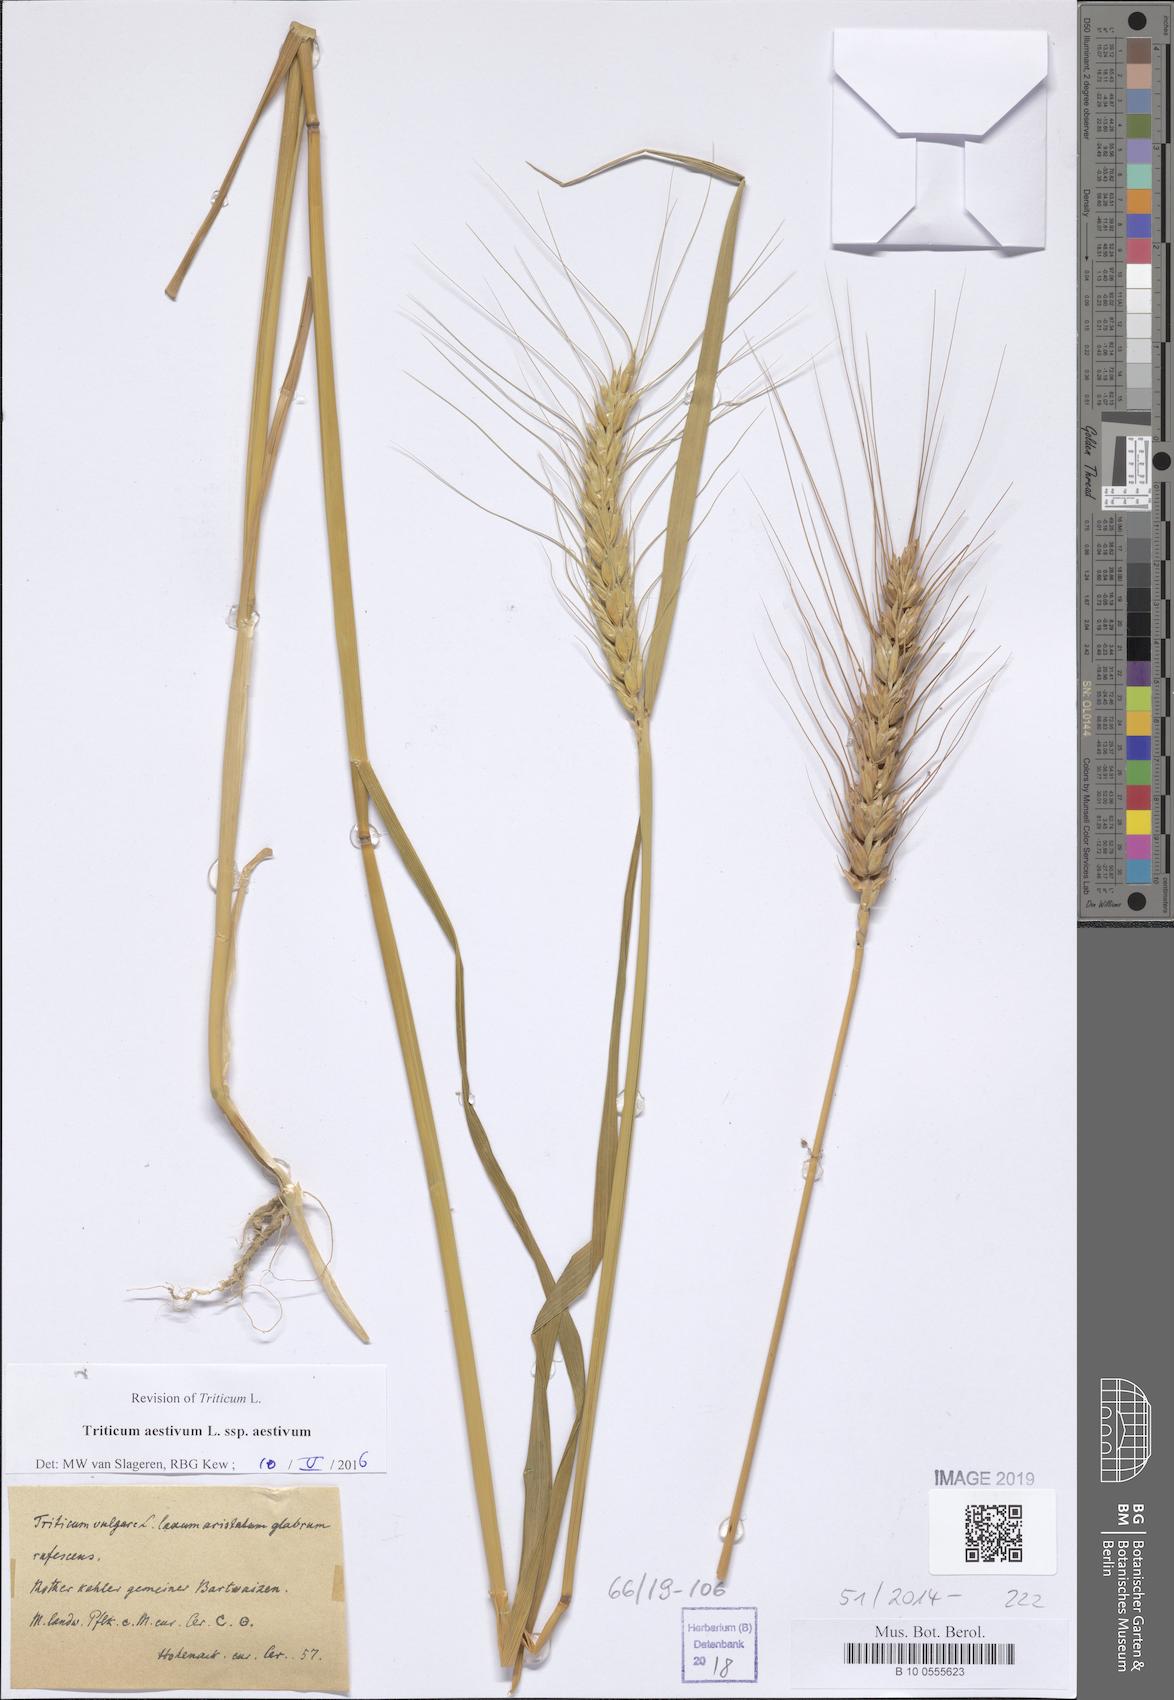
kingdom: Plantae
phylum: Tracheophyta
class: Liliopsida
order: Poales
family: Poaceae
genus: Triticum
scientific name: Triticum aestivum
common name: Common wheat
